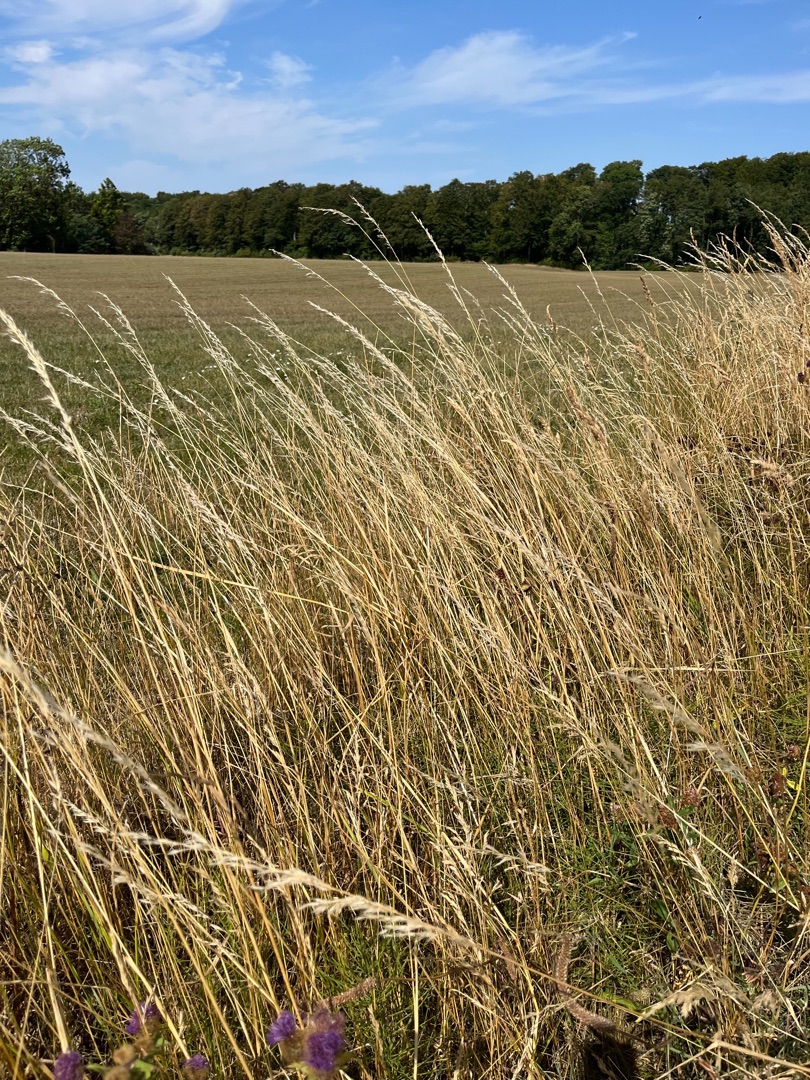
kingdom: Plantae
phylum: Tracheophyta
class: Liliopsida
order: Poales
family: Poaceae
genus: Arrhenatherum
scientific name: Arrhenatherum elatius
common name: Draphavre
